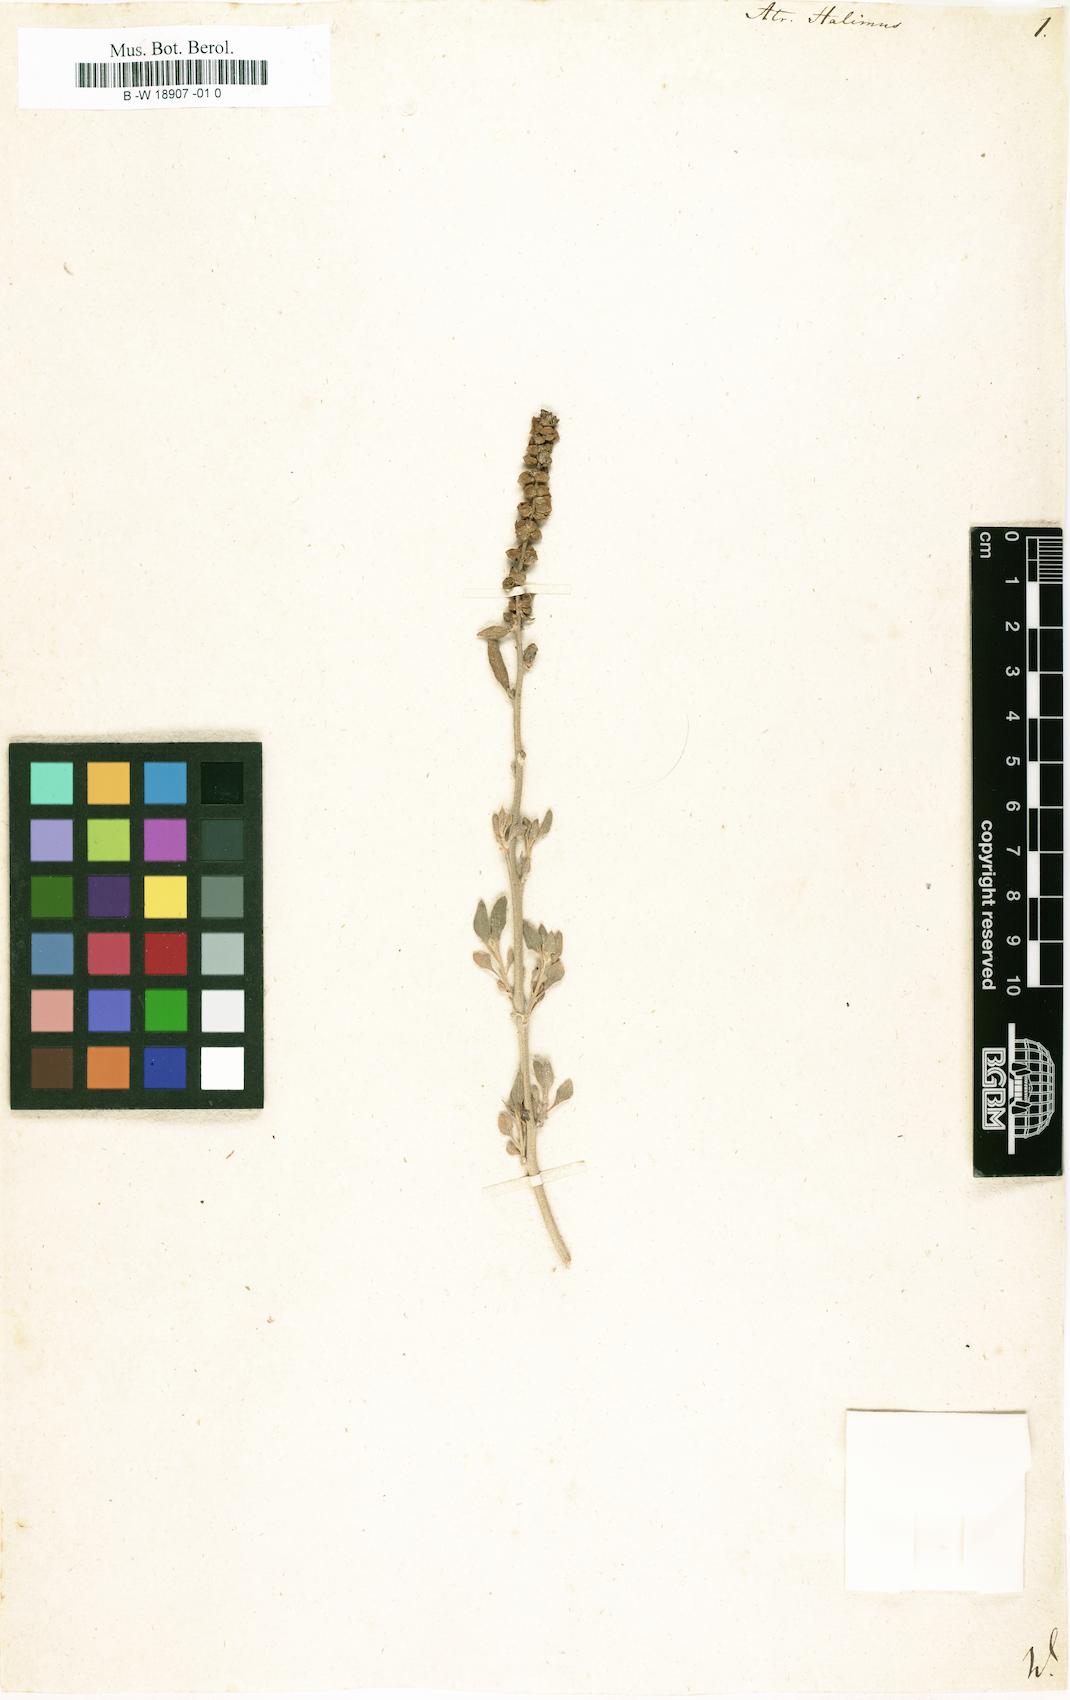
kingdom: Plantae
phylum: Tracheophyta
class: Magnoliopsida
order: Caryophyllales
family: Amaranthaceae
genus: Atriplex
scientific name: Atriplex halimus
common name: Shrubby orache
